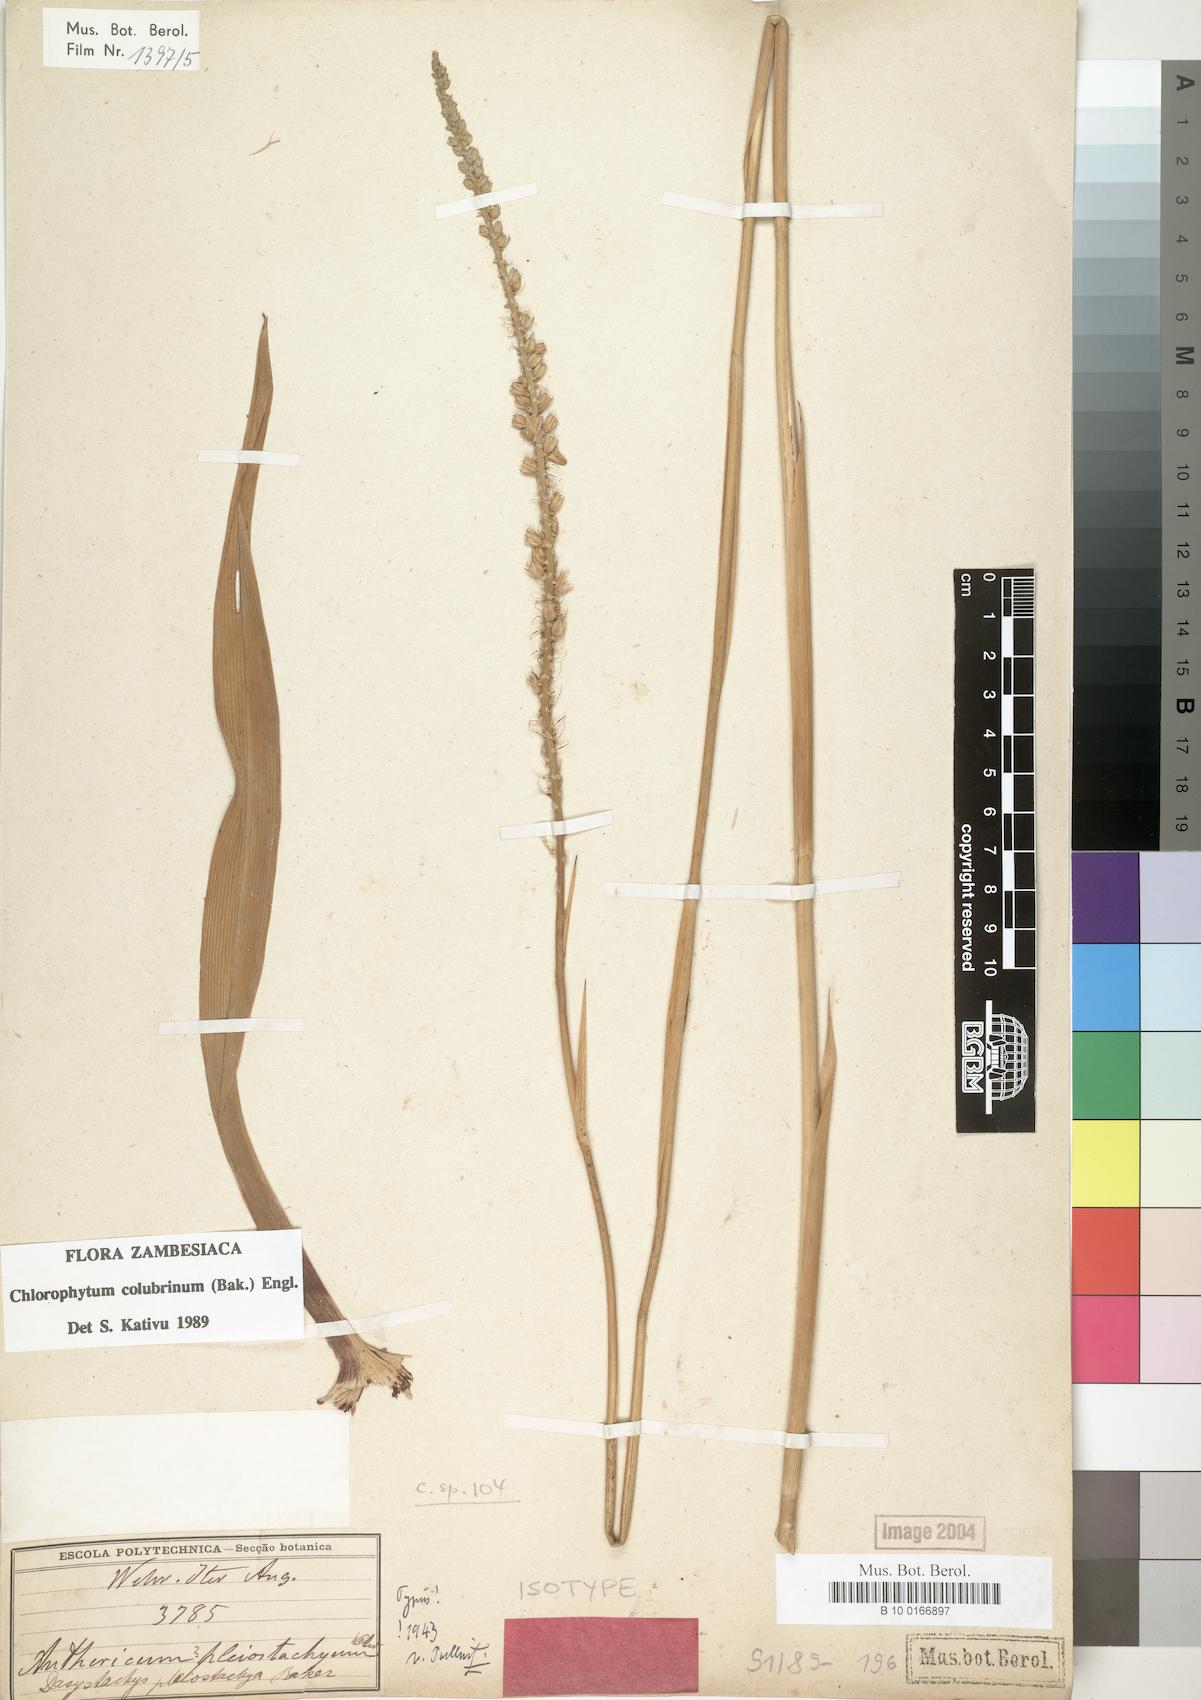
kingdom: Plantae
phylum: Tracheophyta
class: Liliopsida
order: Asparagales
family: Asparagaceae
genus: Chlorophytum
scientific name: Chlorophytum colubrinum
